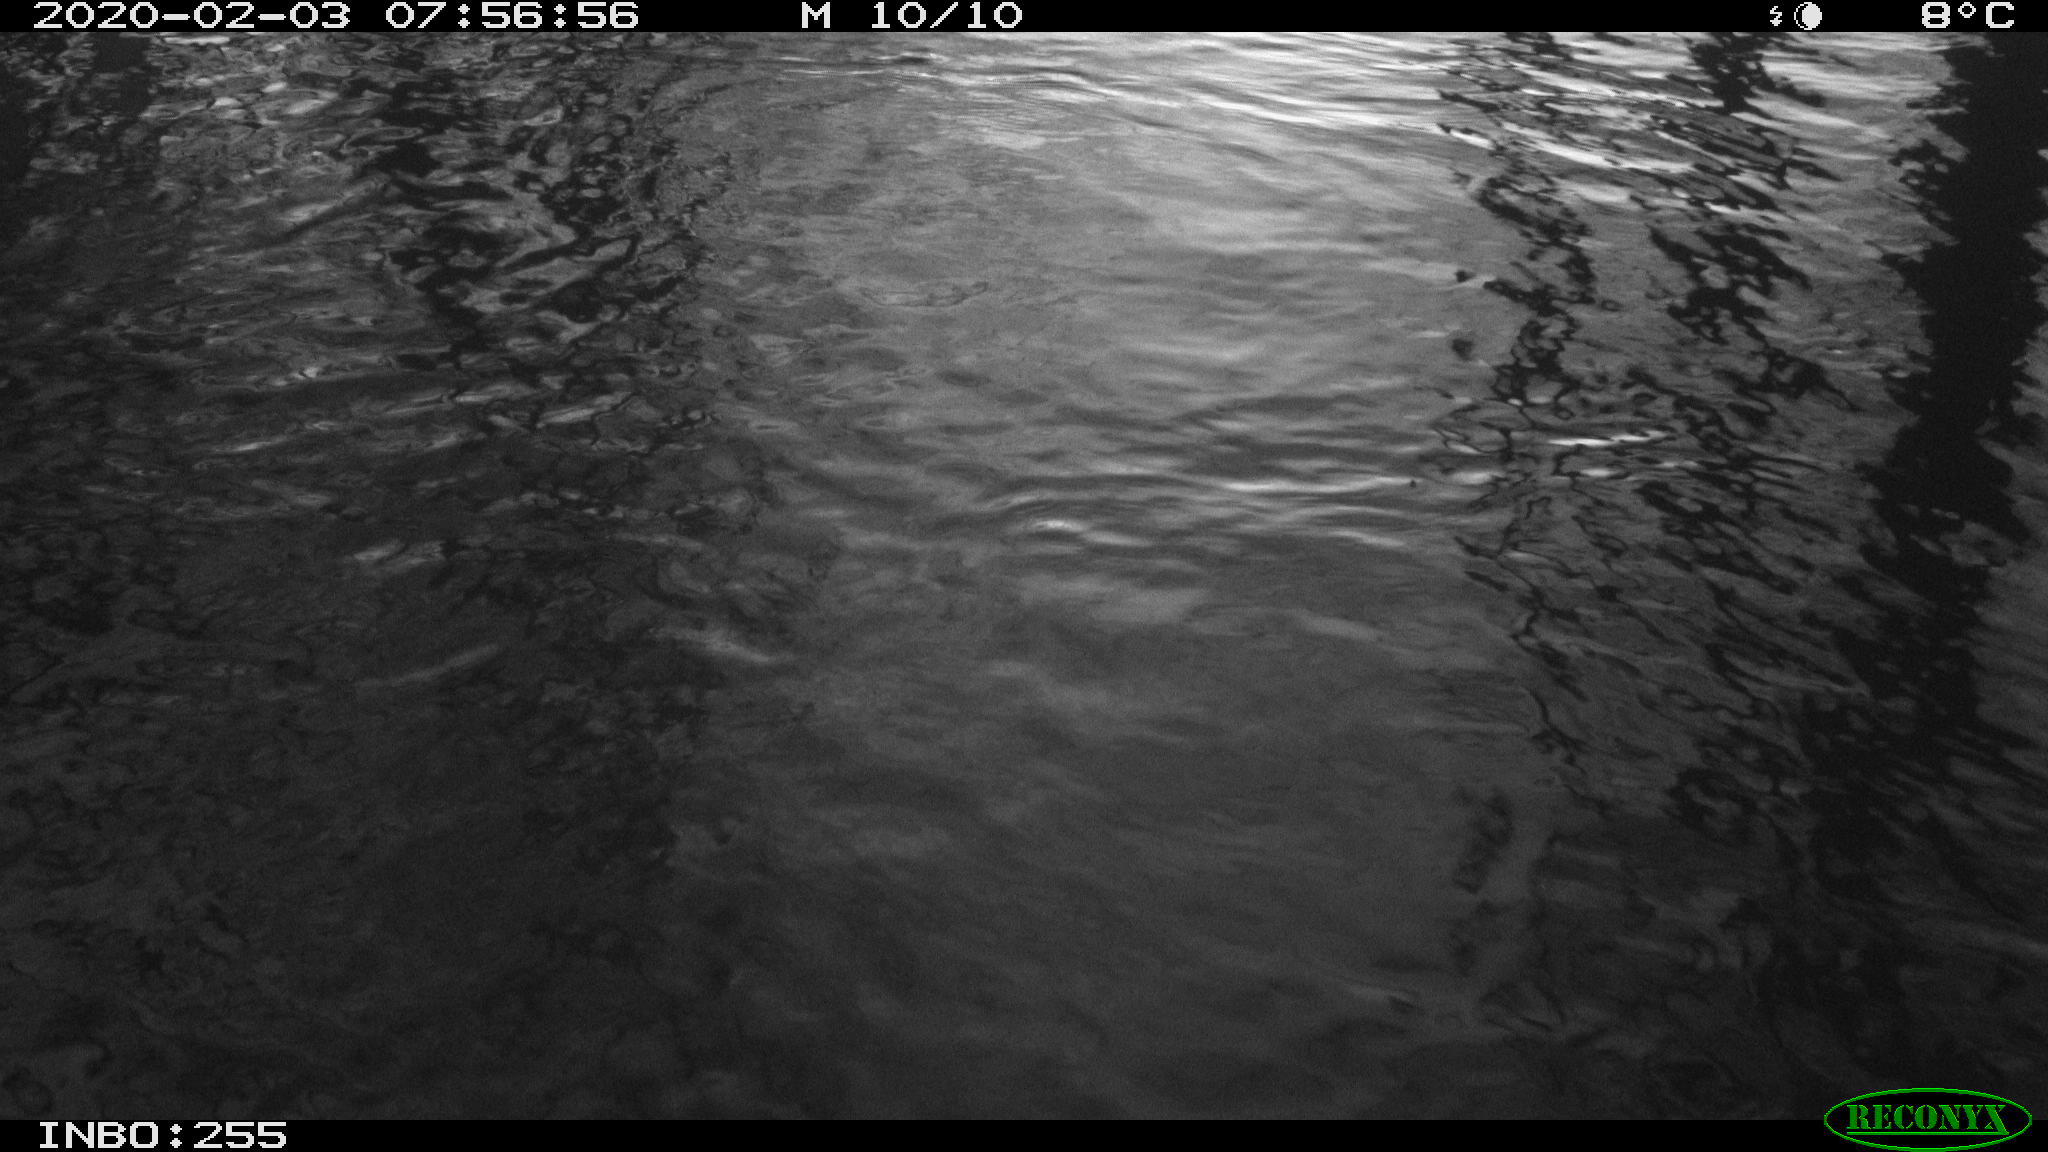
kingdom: Animalia
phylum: Chordata
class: Aves
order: Gruiformes
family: Rallidae
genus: Gallinula
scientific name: Gallinula chloropus
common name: Common moorhen
